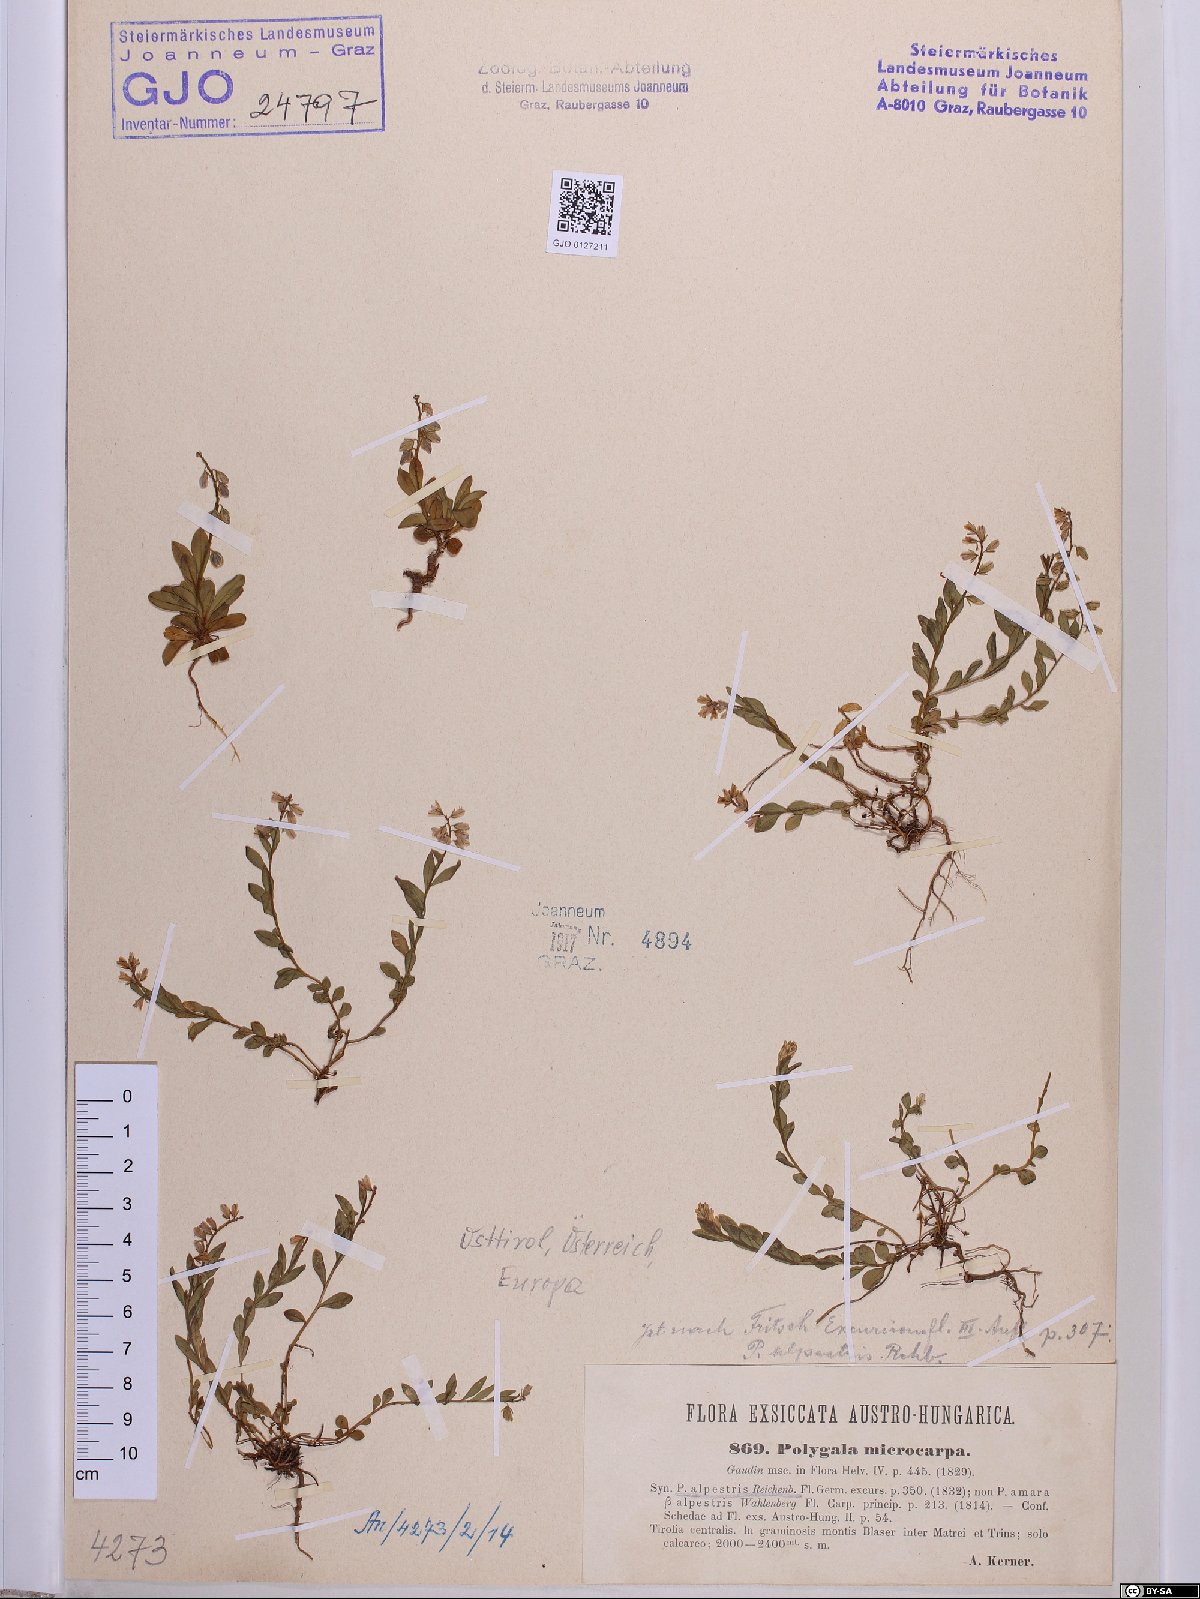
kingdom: Plantae
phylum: Tracheophyta
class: Magnoliopsida
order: Fabales
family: Polygalaceae
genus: Polygala
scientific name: Polygala alpestris
